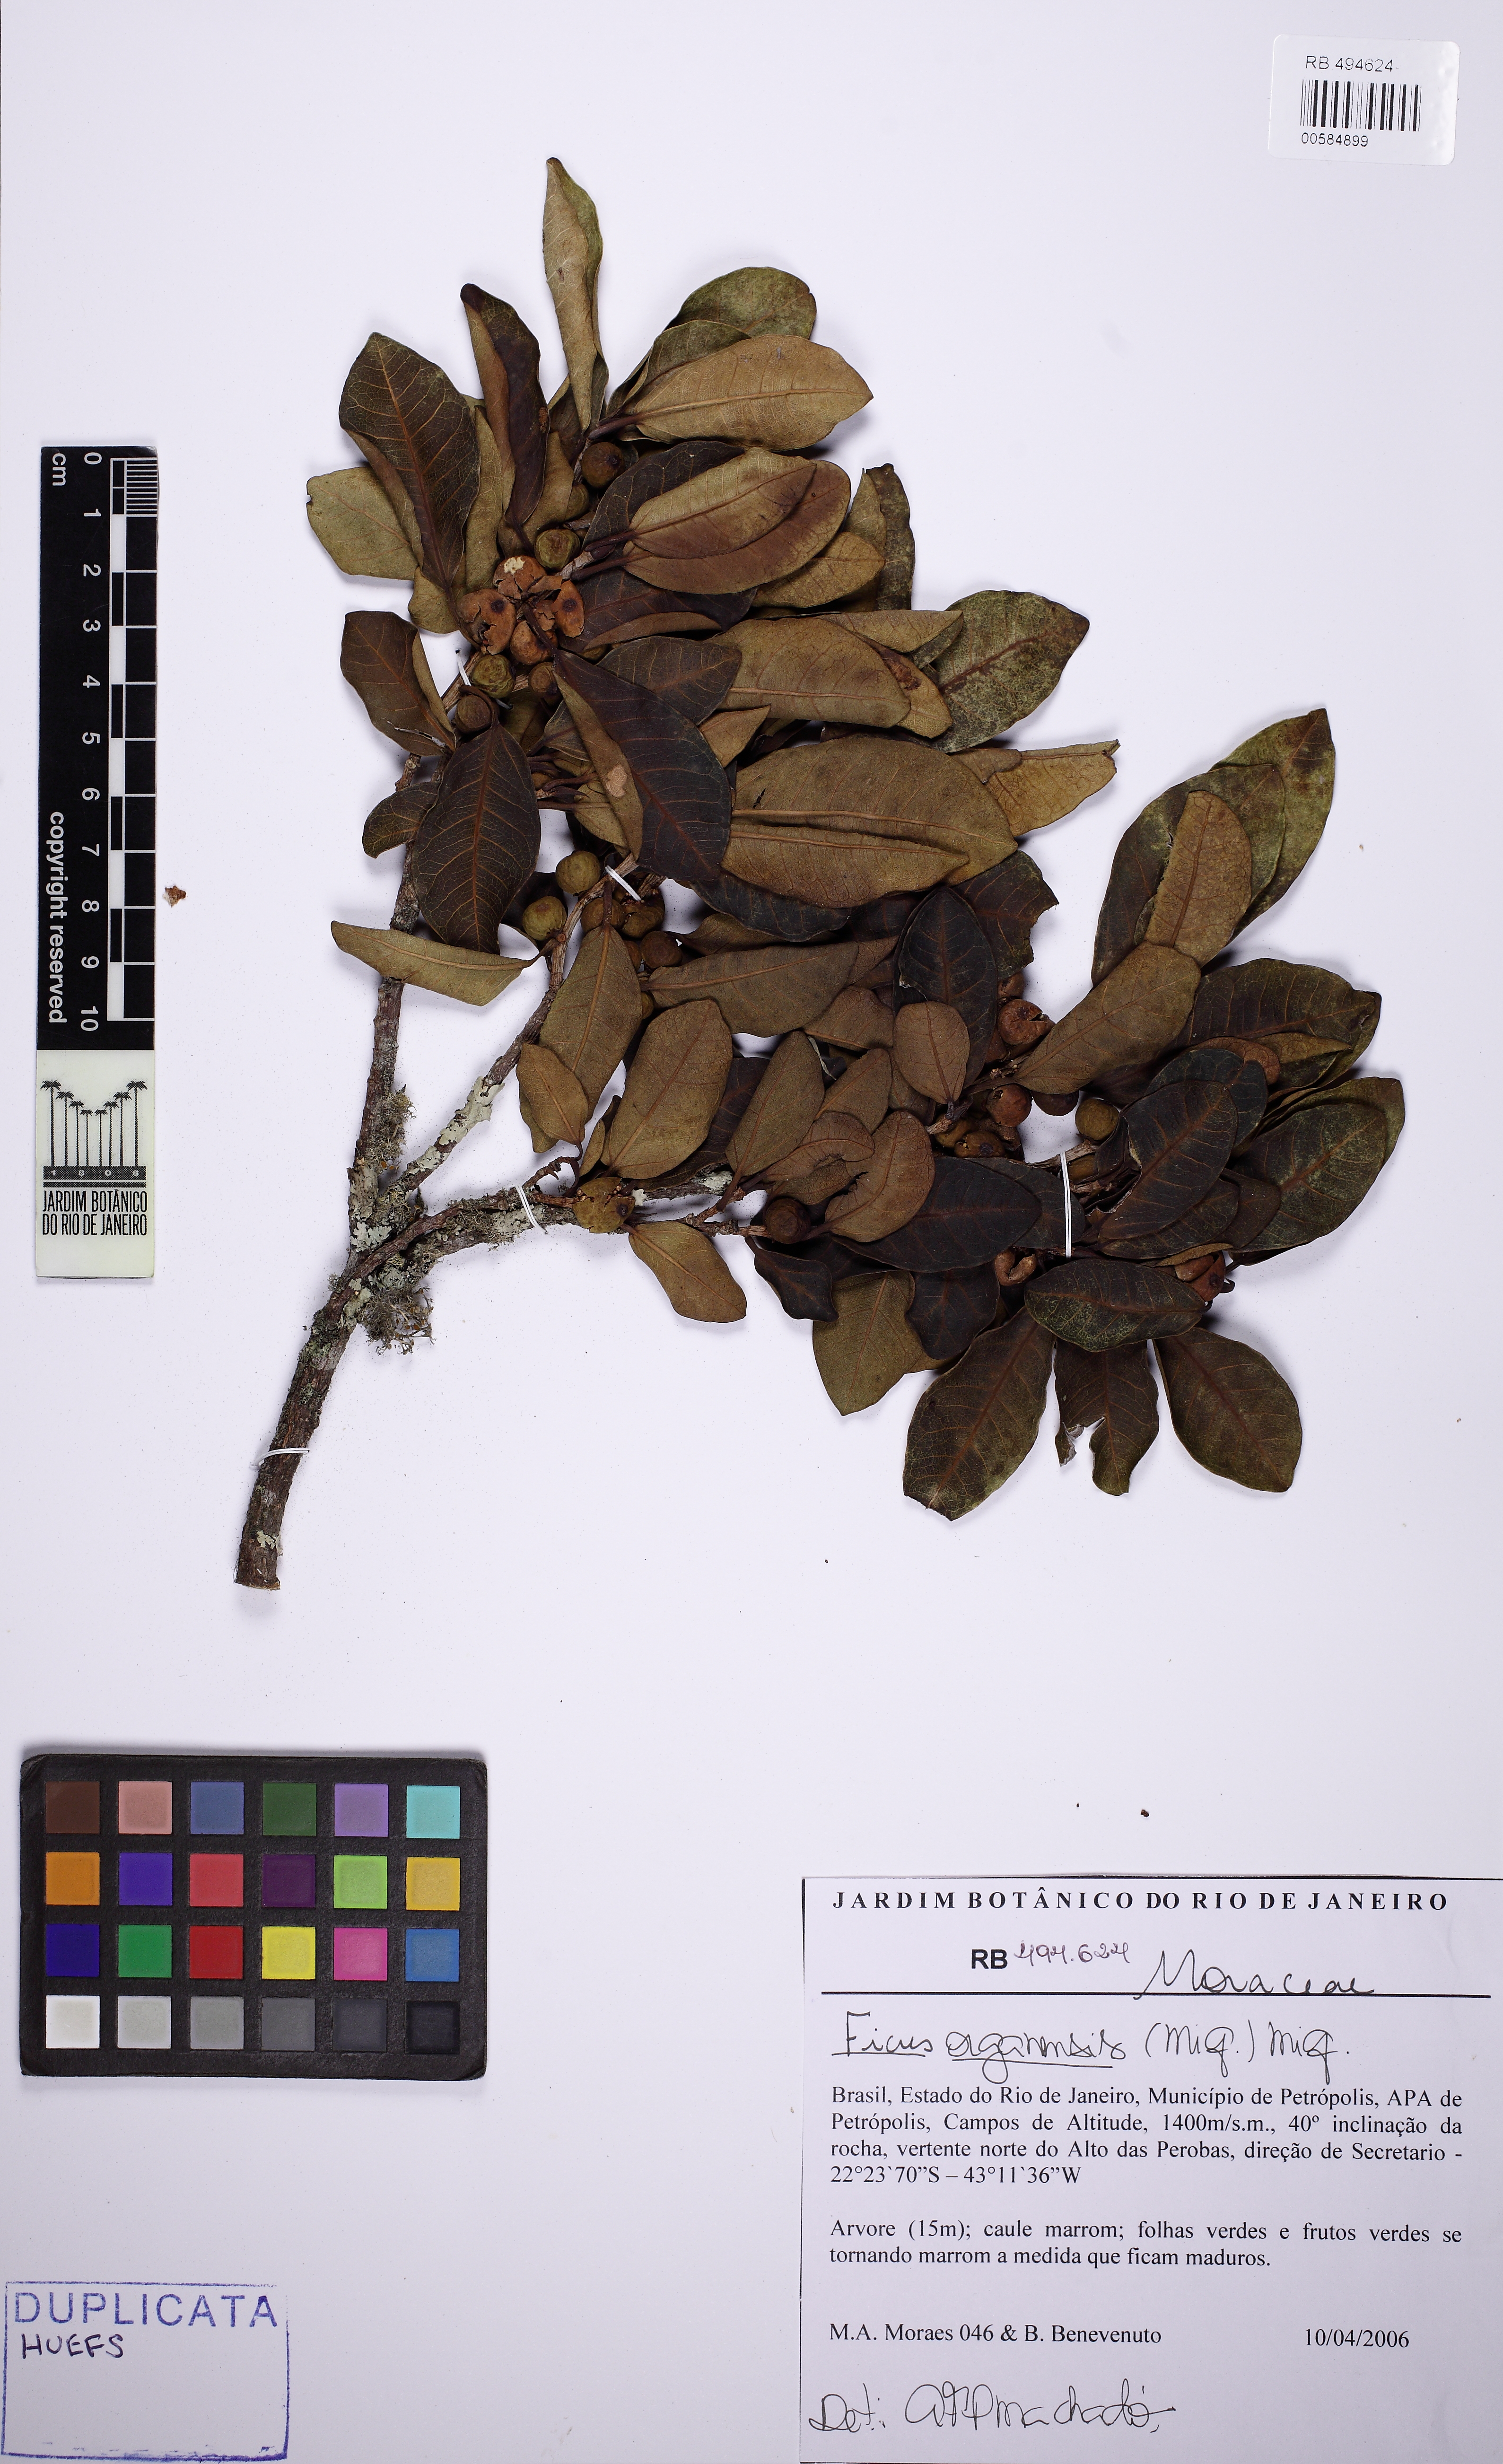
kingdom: Plantae
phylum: Tracheophyta
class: Magnoliopsida
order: Rosales
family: Moraceae
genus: Ficus
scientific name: Ficus organensis
